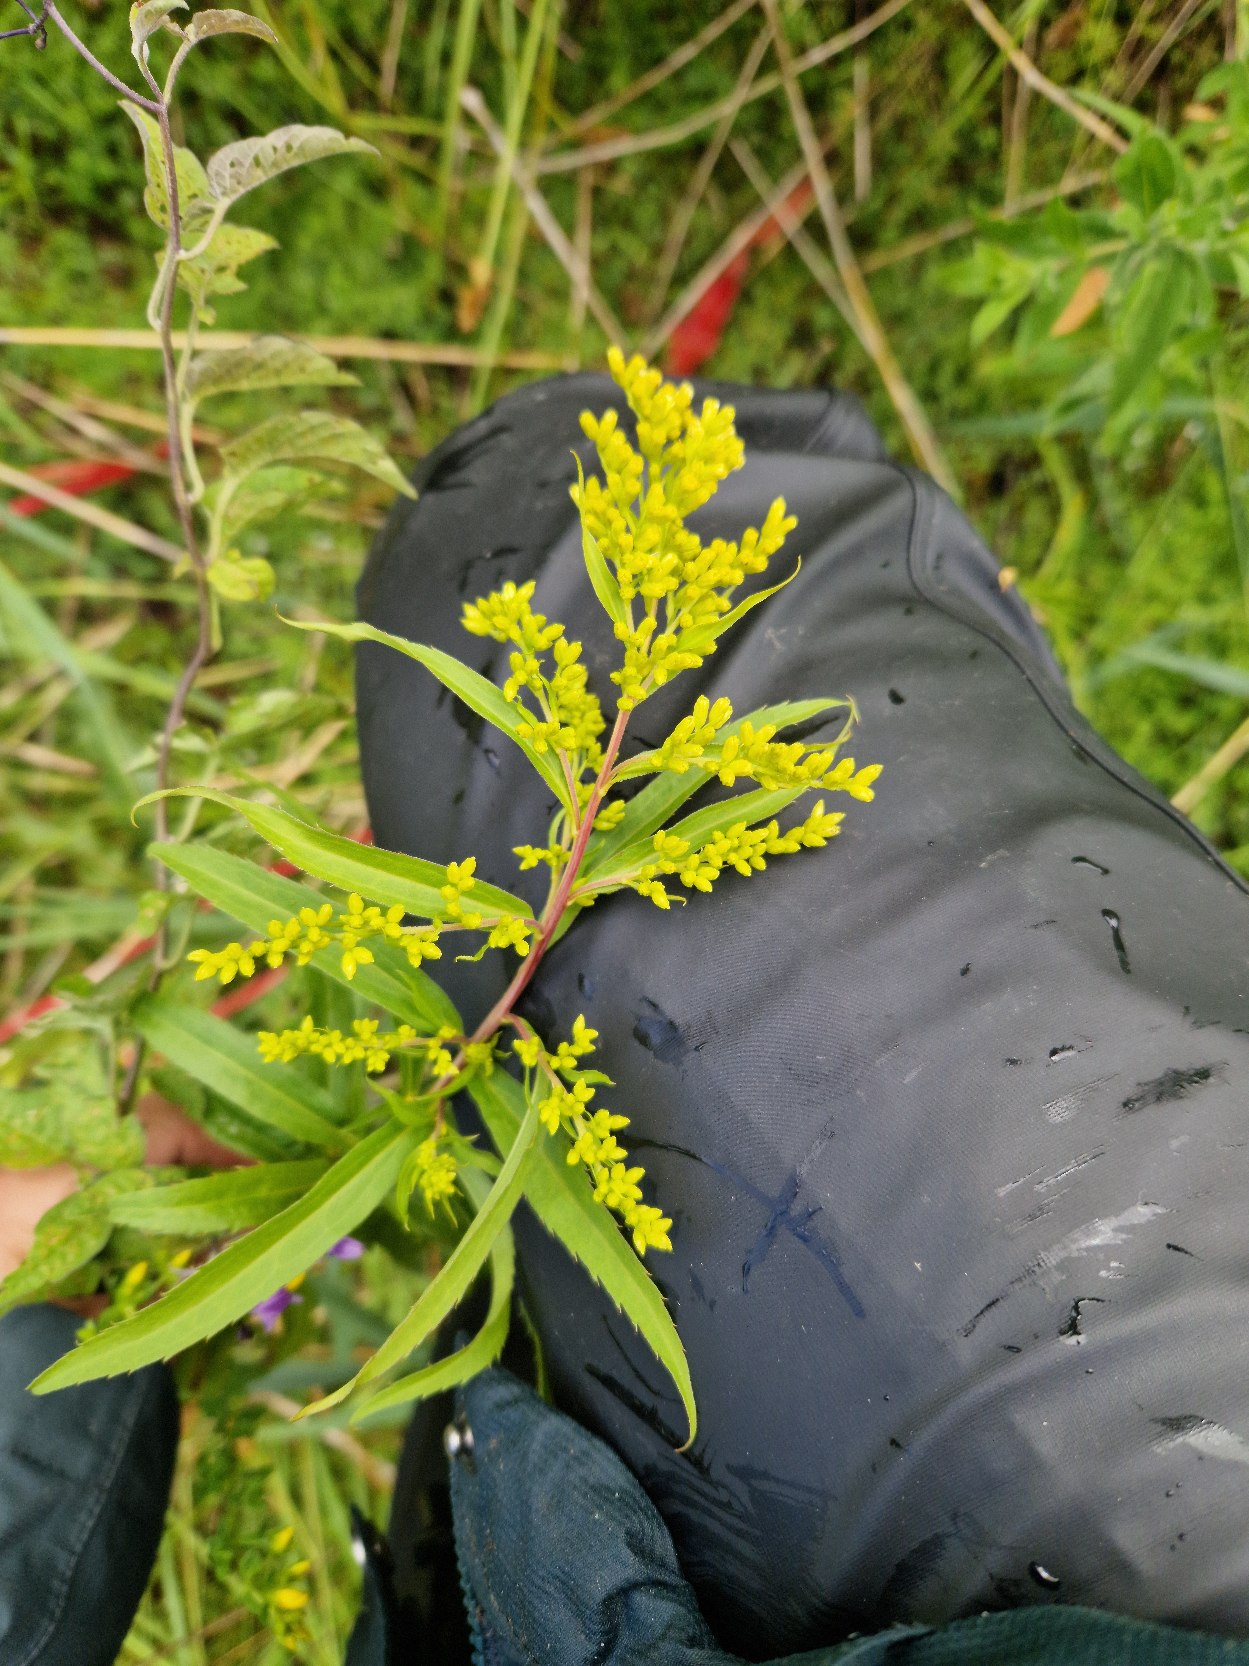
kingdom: Plantae
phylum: Tracheophyta
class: Magnoliopsida
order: Asterales
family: Asteraceae
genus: Solidago
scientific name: Solidago gigantea
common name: Sildig gyldenris
